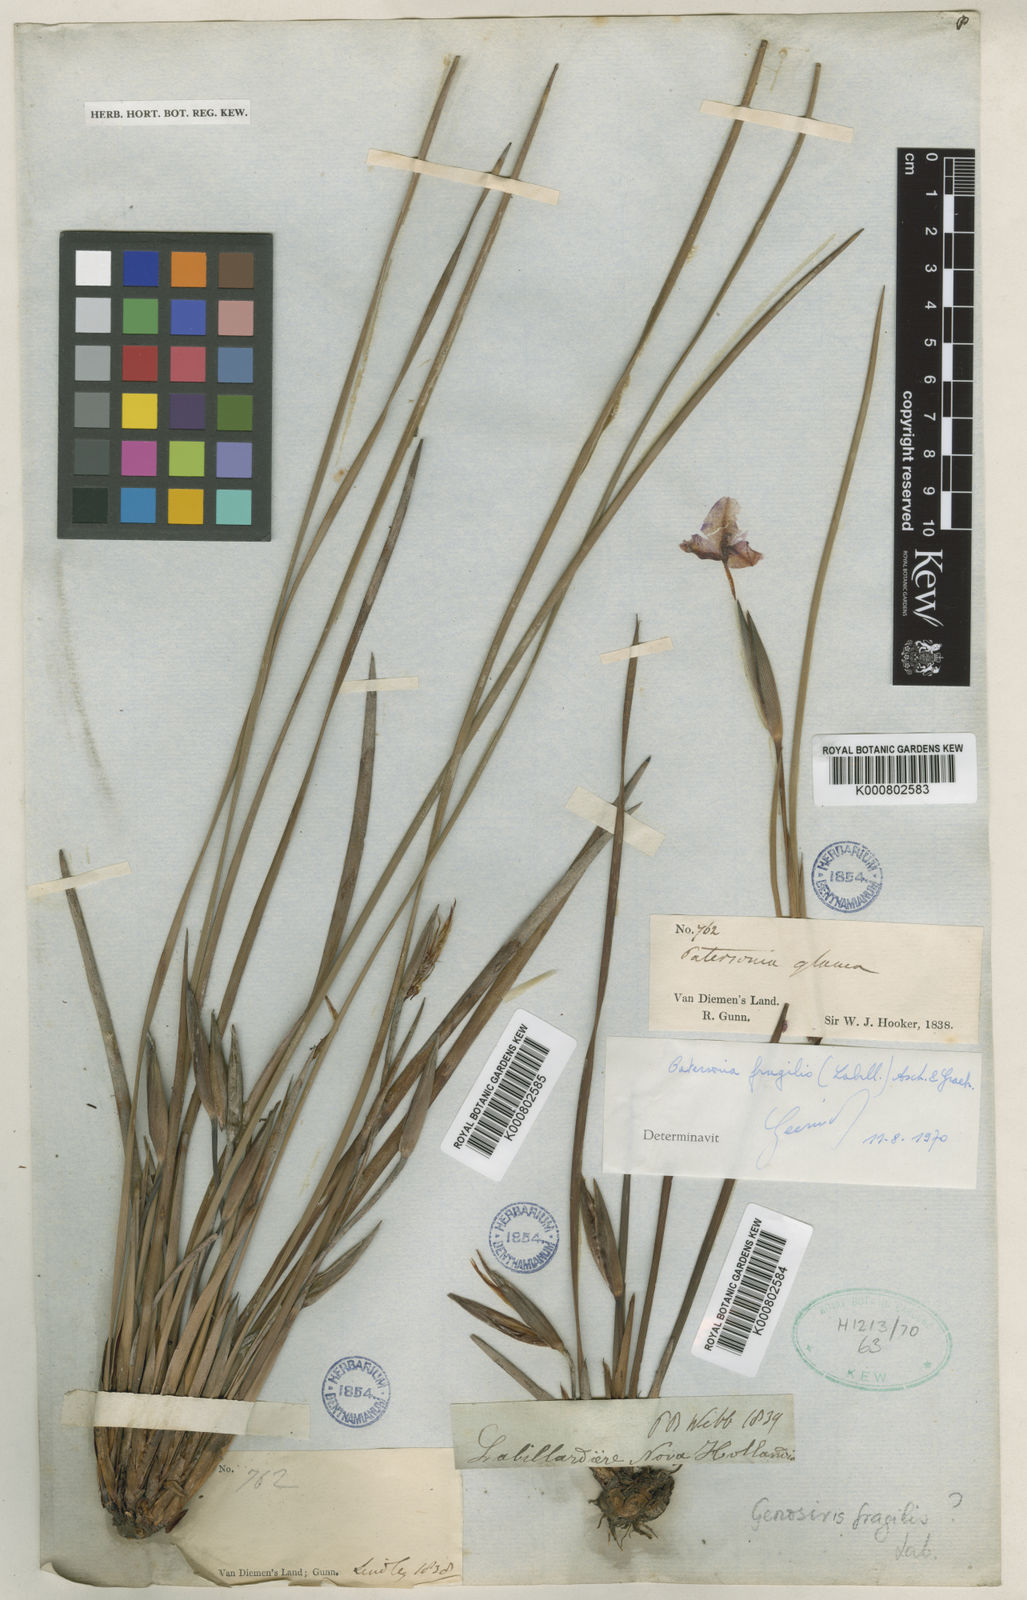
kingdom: Plantae
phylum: Tracheophyta
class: Liliopsida
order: Asparagales
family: Iridaceae
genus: Patersonia
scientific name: Patersonia fragilis
